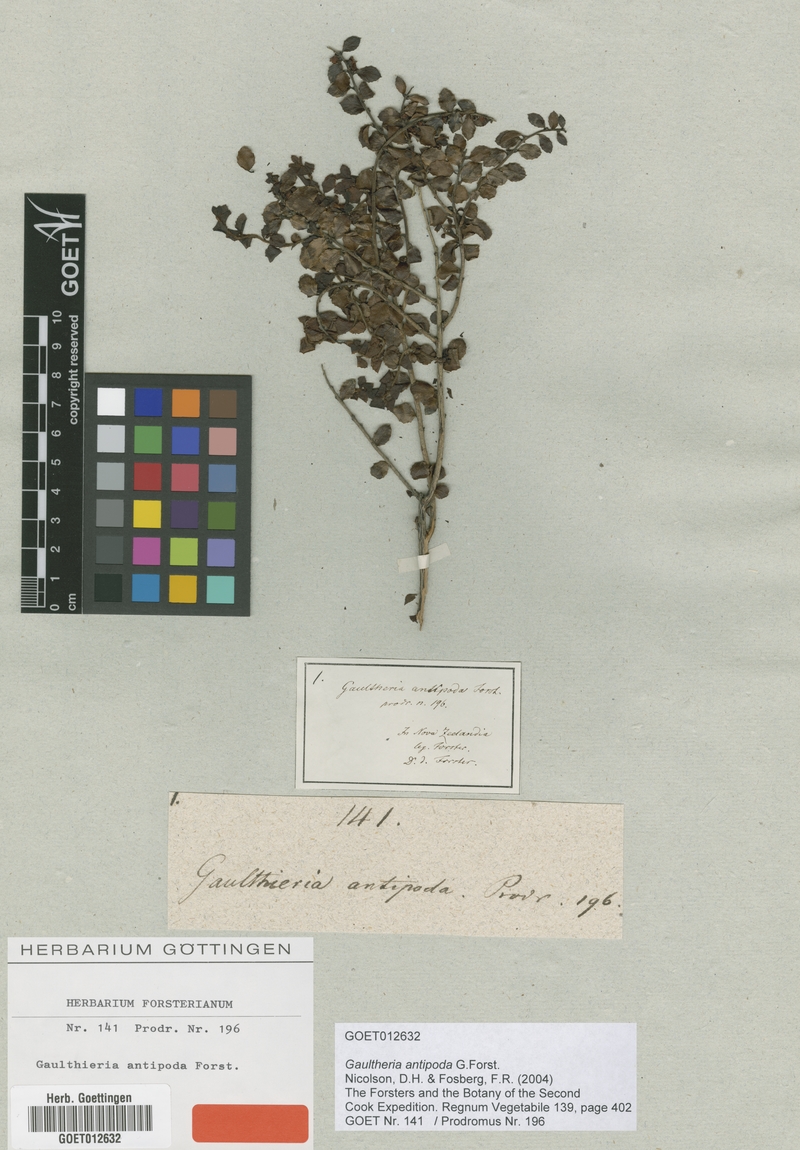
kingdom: Plantae
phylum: Tracheophyta
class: Magnoliopsida
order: Ericales
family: Ericaceae
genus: Gaultheria
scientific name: Gaultheria antipoda
